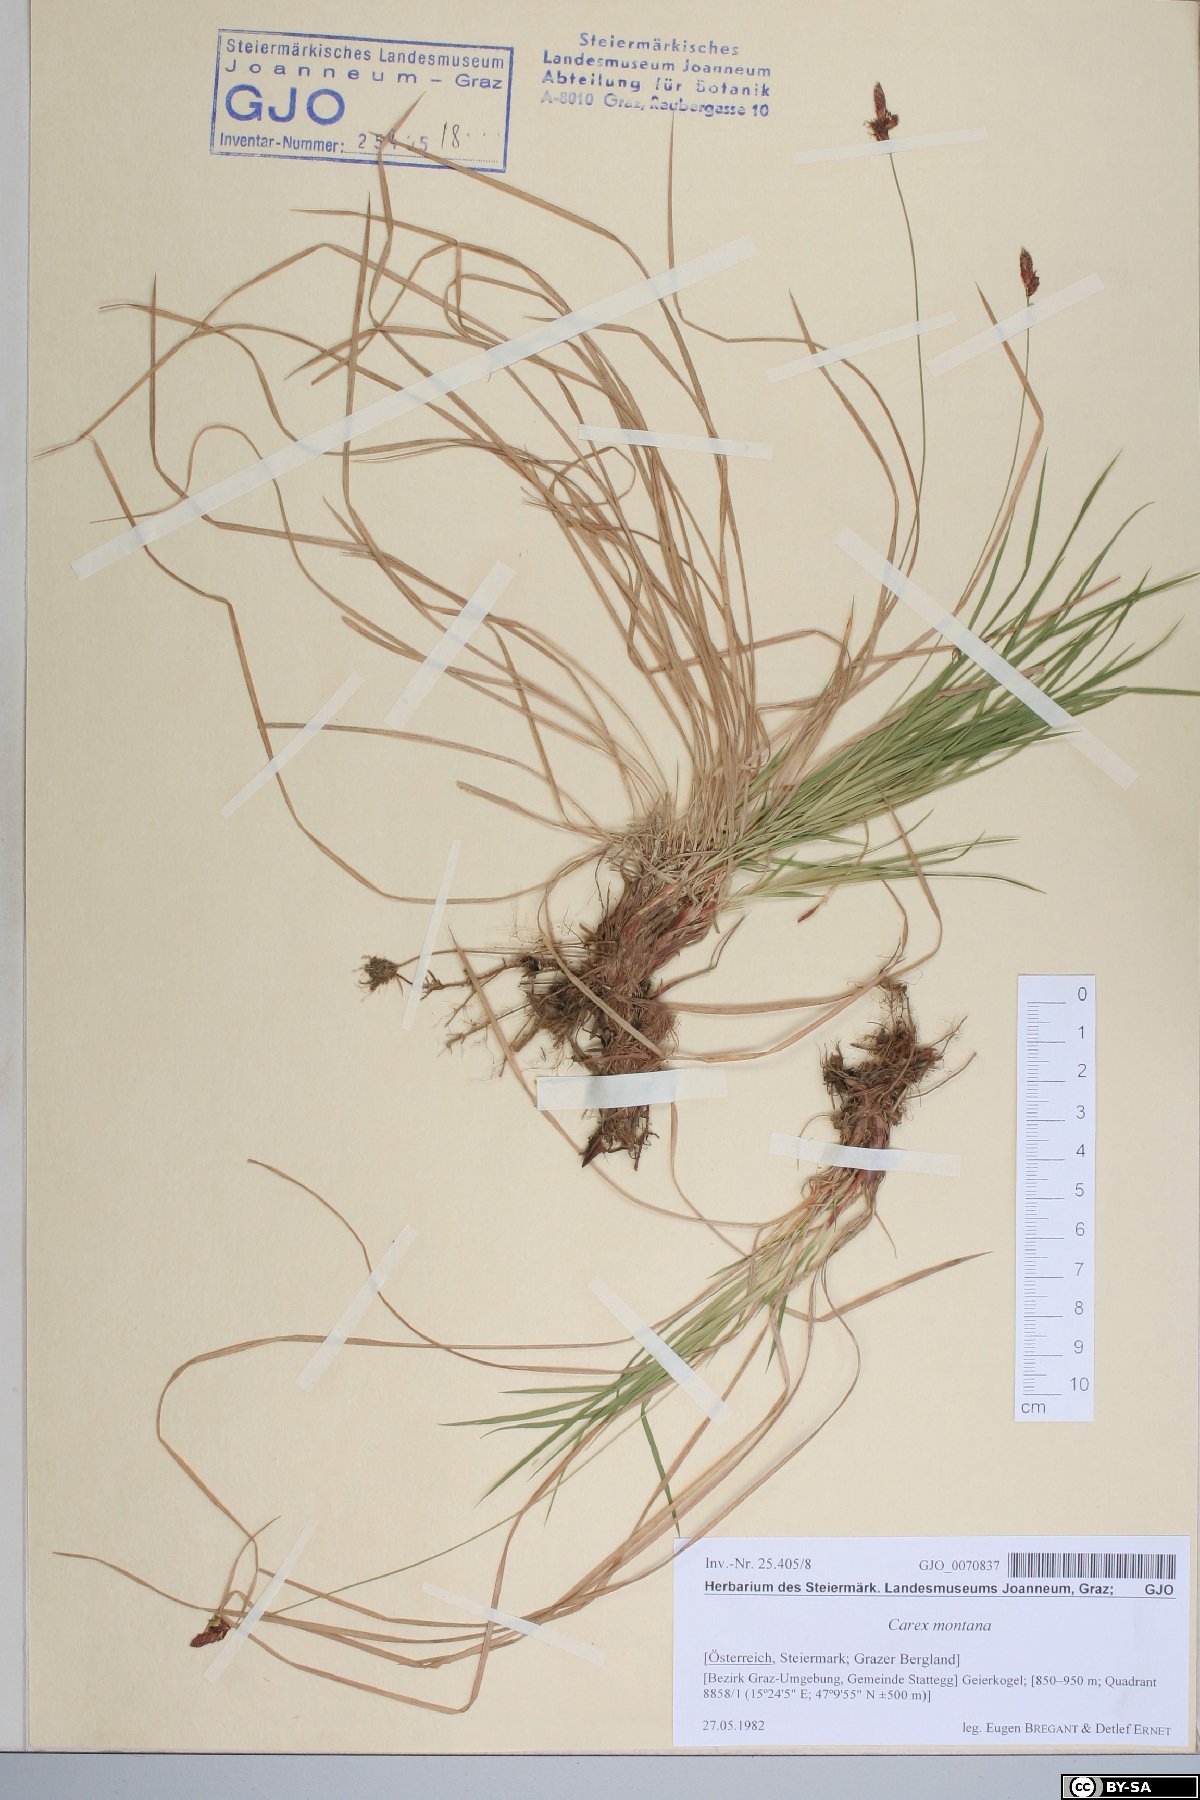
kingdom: Plantae
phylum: Tracheophyta
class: Liliopsida
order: Poales
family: Cyperaceae
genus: Carex
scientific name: Carex montana
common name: Soft-leaved sedge
